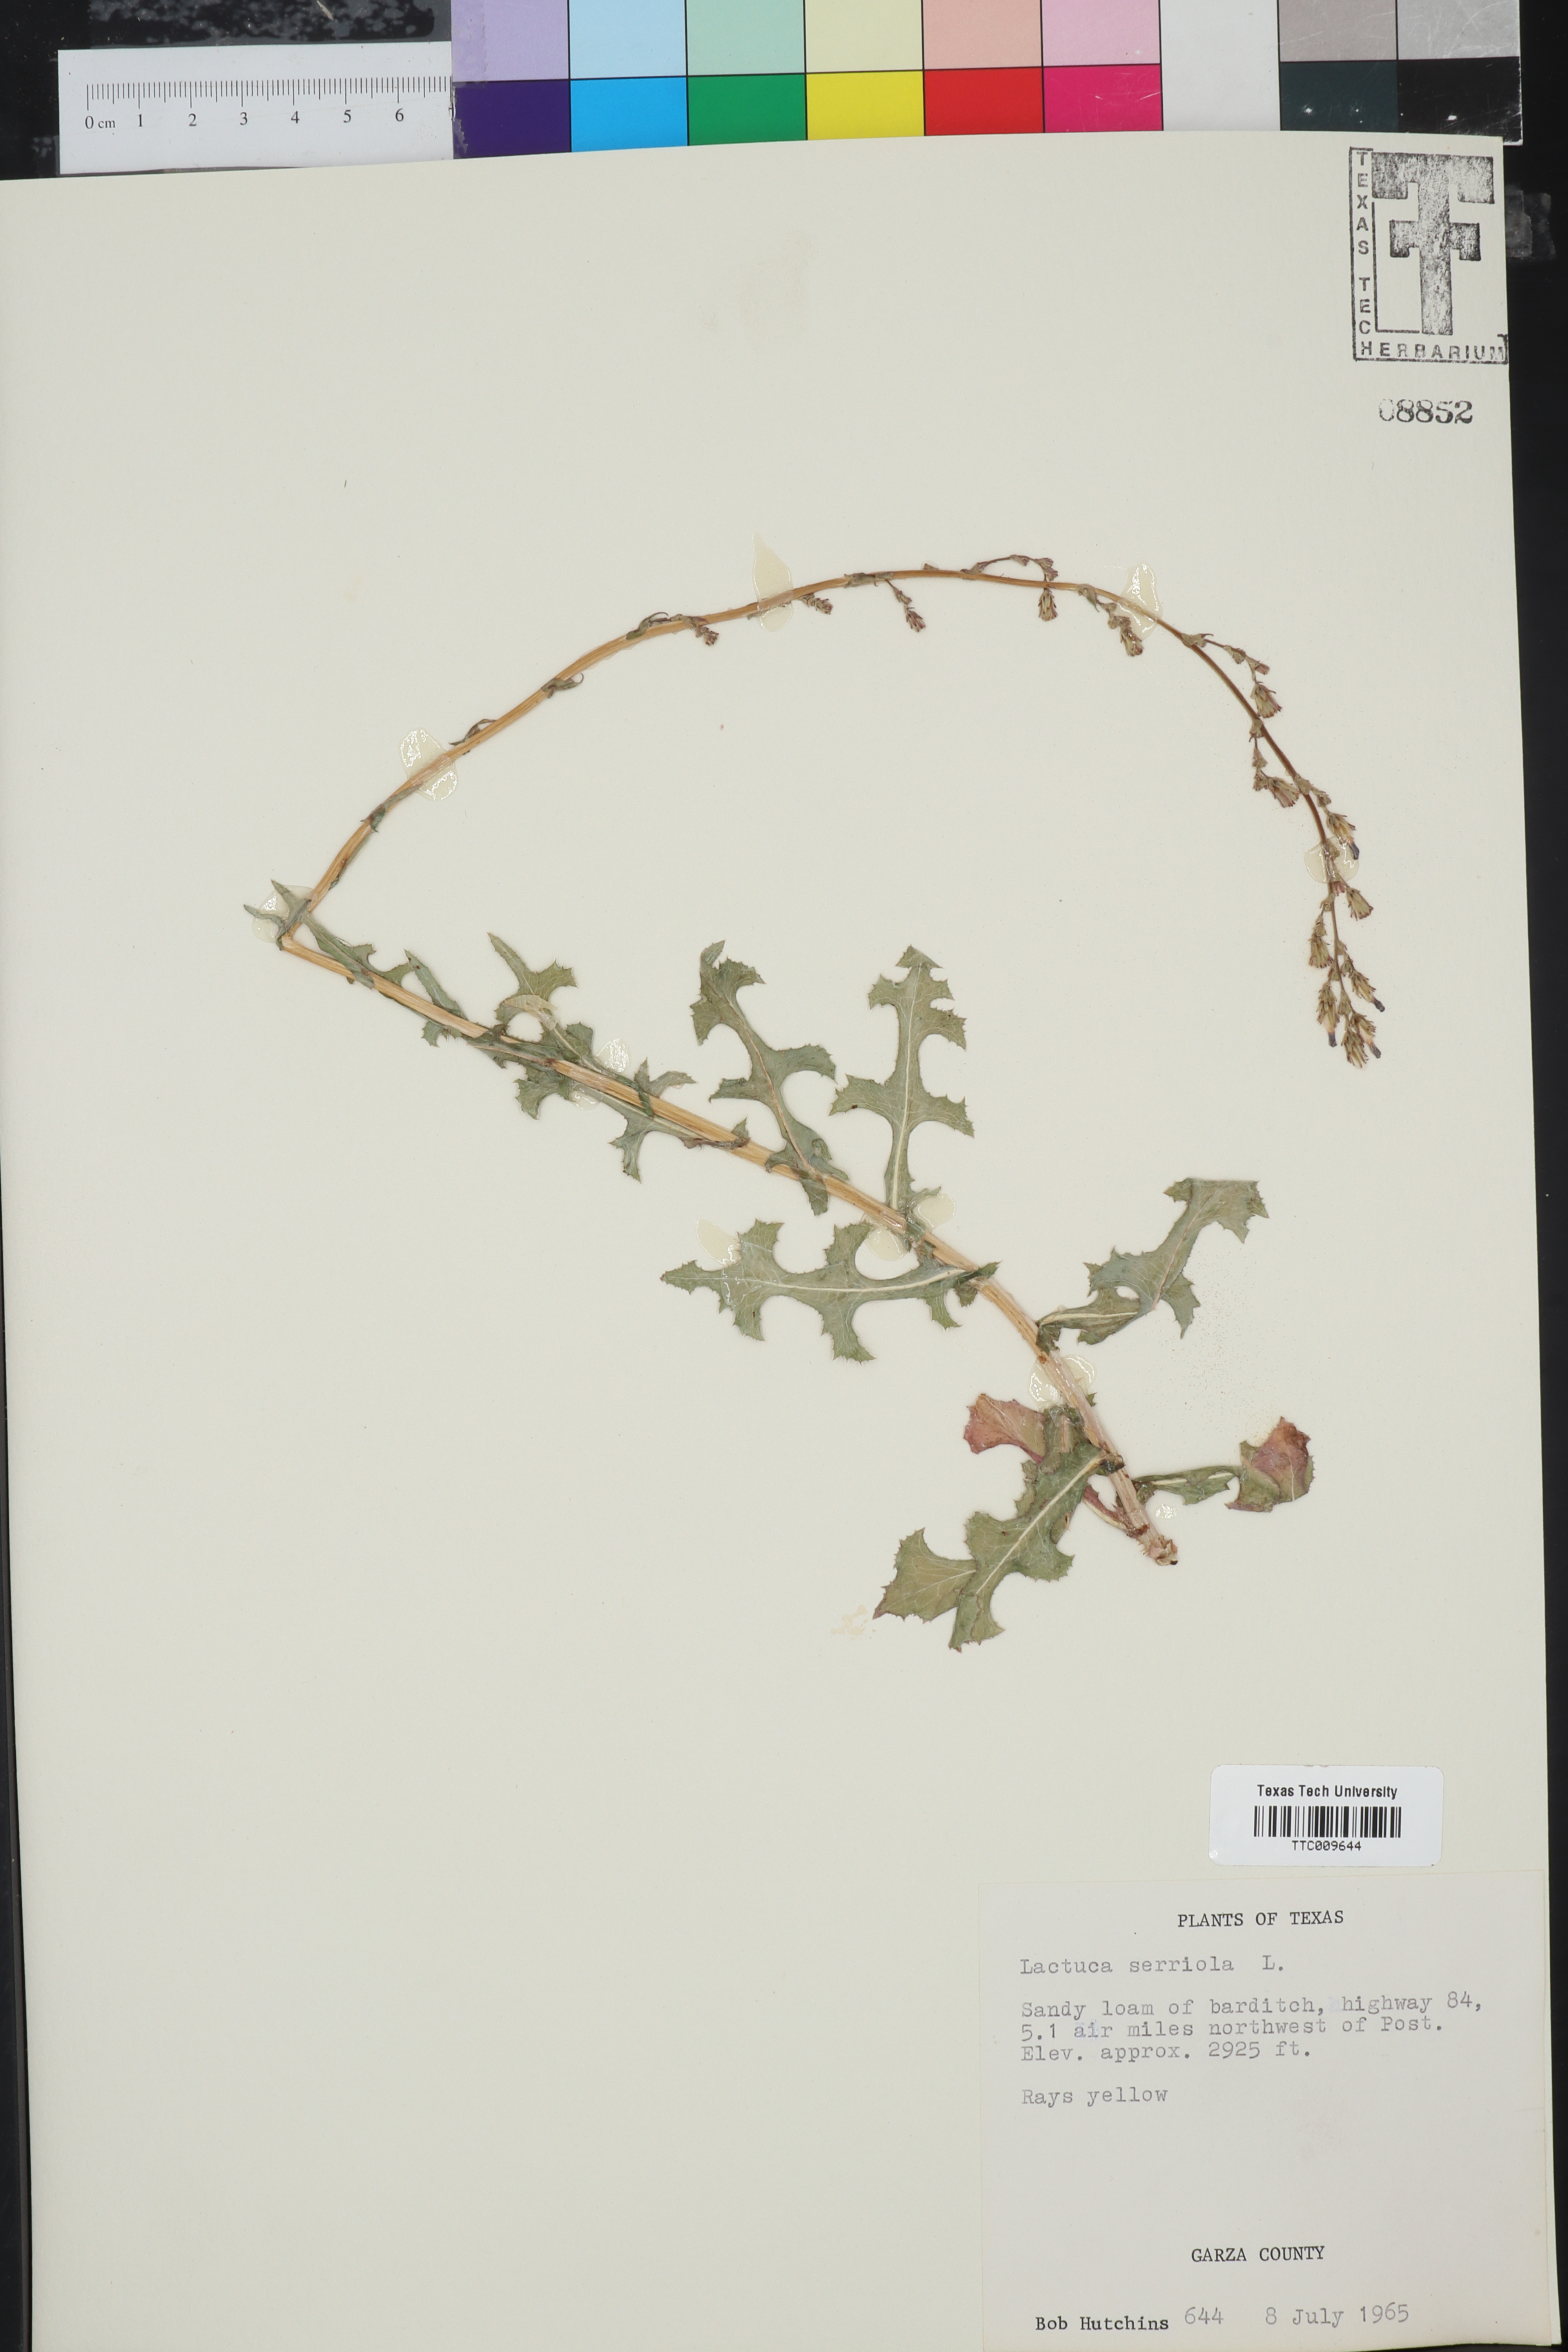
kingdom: Plantae
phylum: Tracheophyta
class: Magnoliopsida
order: Asterales
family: Asteraceae
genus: Lactuca
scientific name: Lactuca serriola
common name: Prickly lettuce
